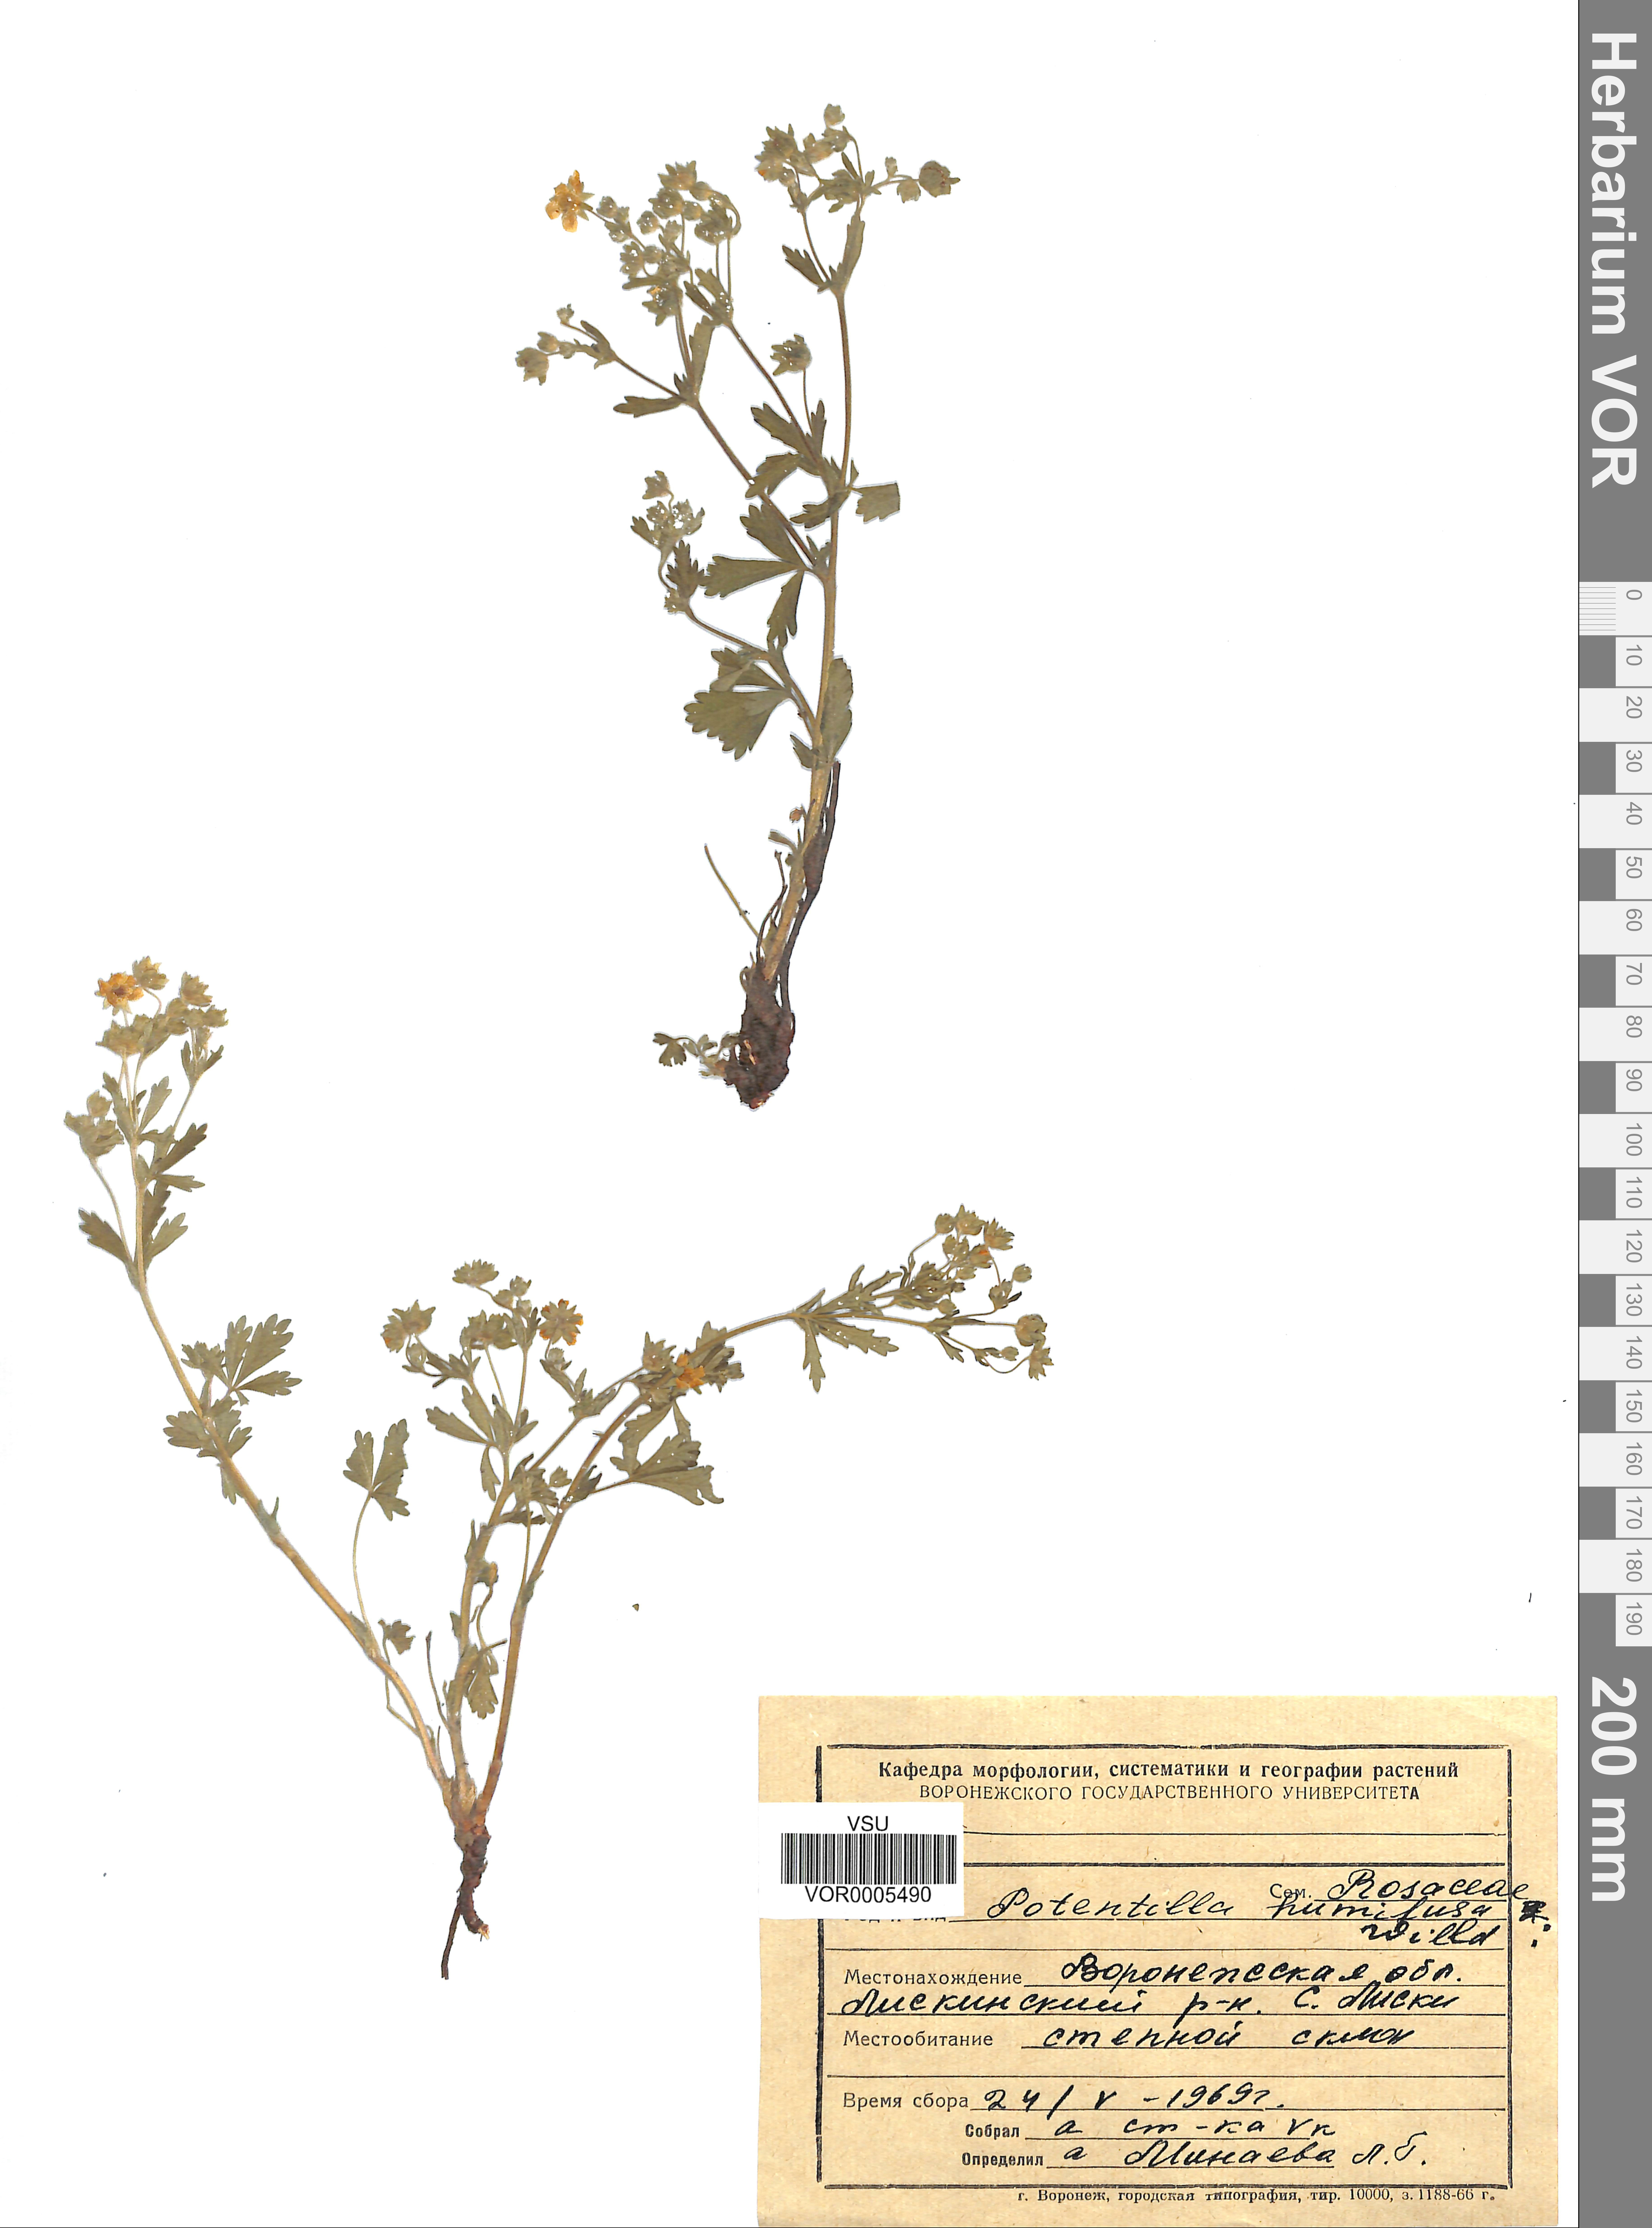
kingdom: Plantae
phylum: Tracheophyta
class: Magnoliopsida
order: Rosales
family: Rosaceae
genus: Potentilla
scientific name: Potentilla humifusa
